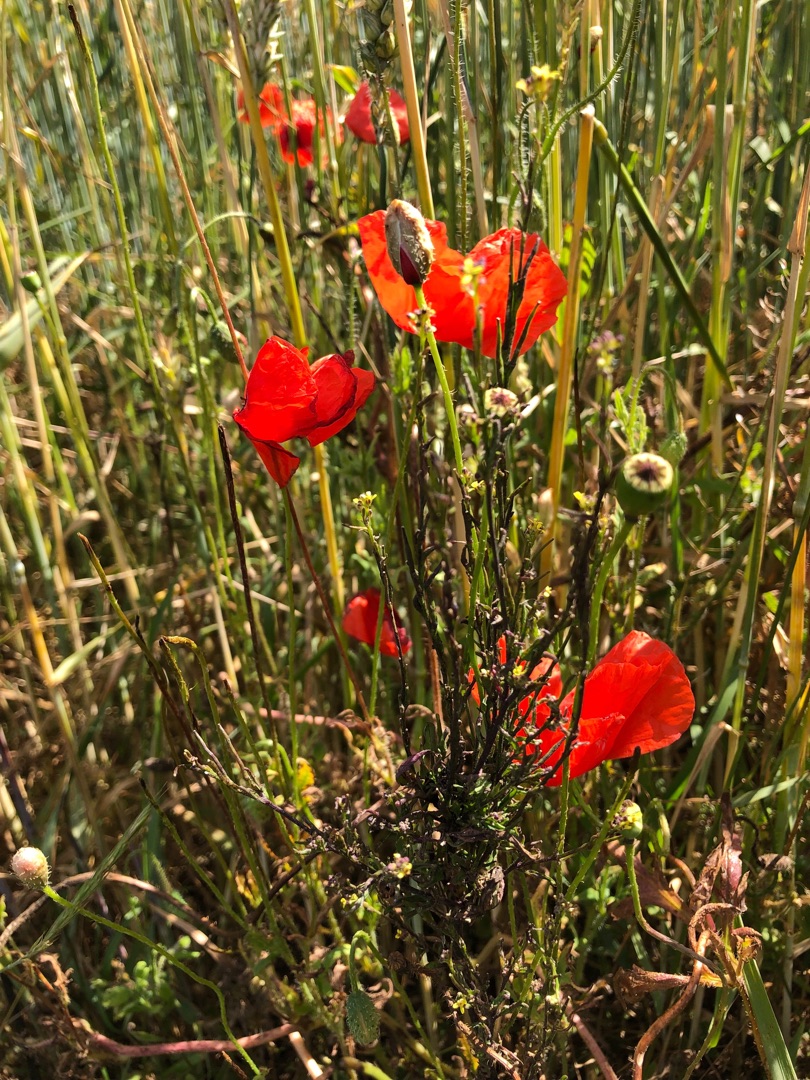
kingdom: Plantae
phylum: Tracheophyta
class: Magnoliopsida
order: Ranunculales
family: Papaveraceae
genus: Papaver
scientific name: Papaver rhoeas
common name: Korn-valmue
